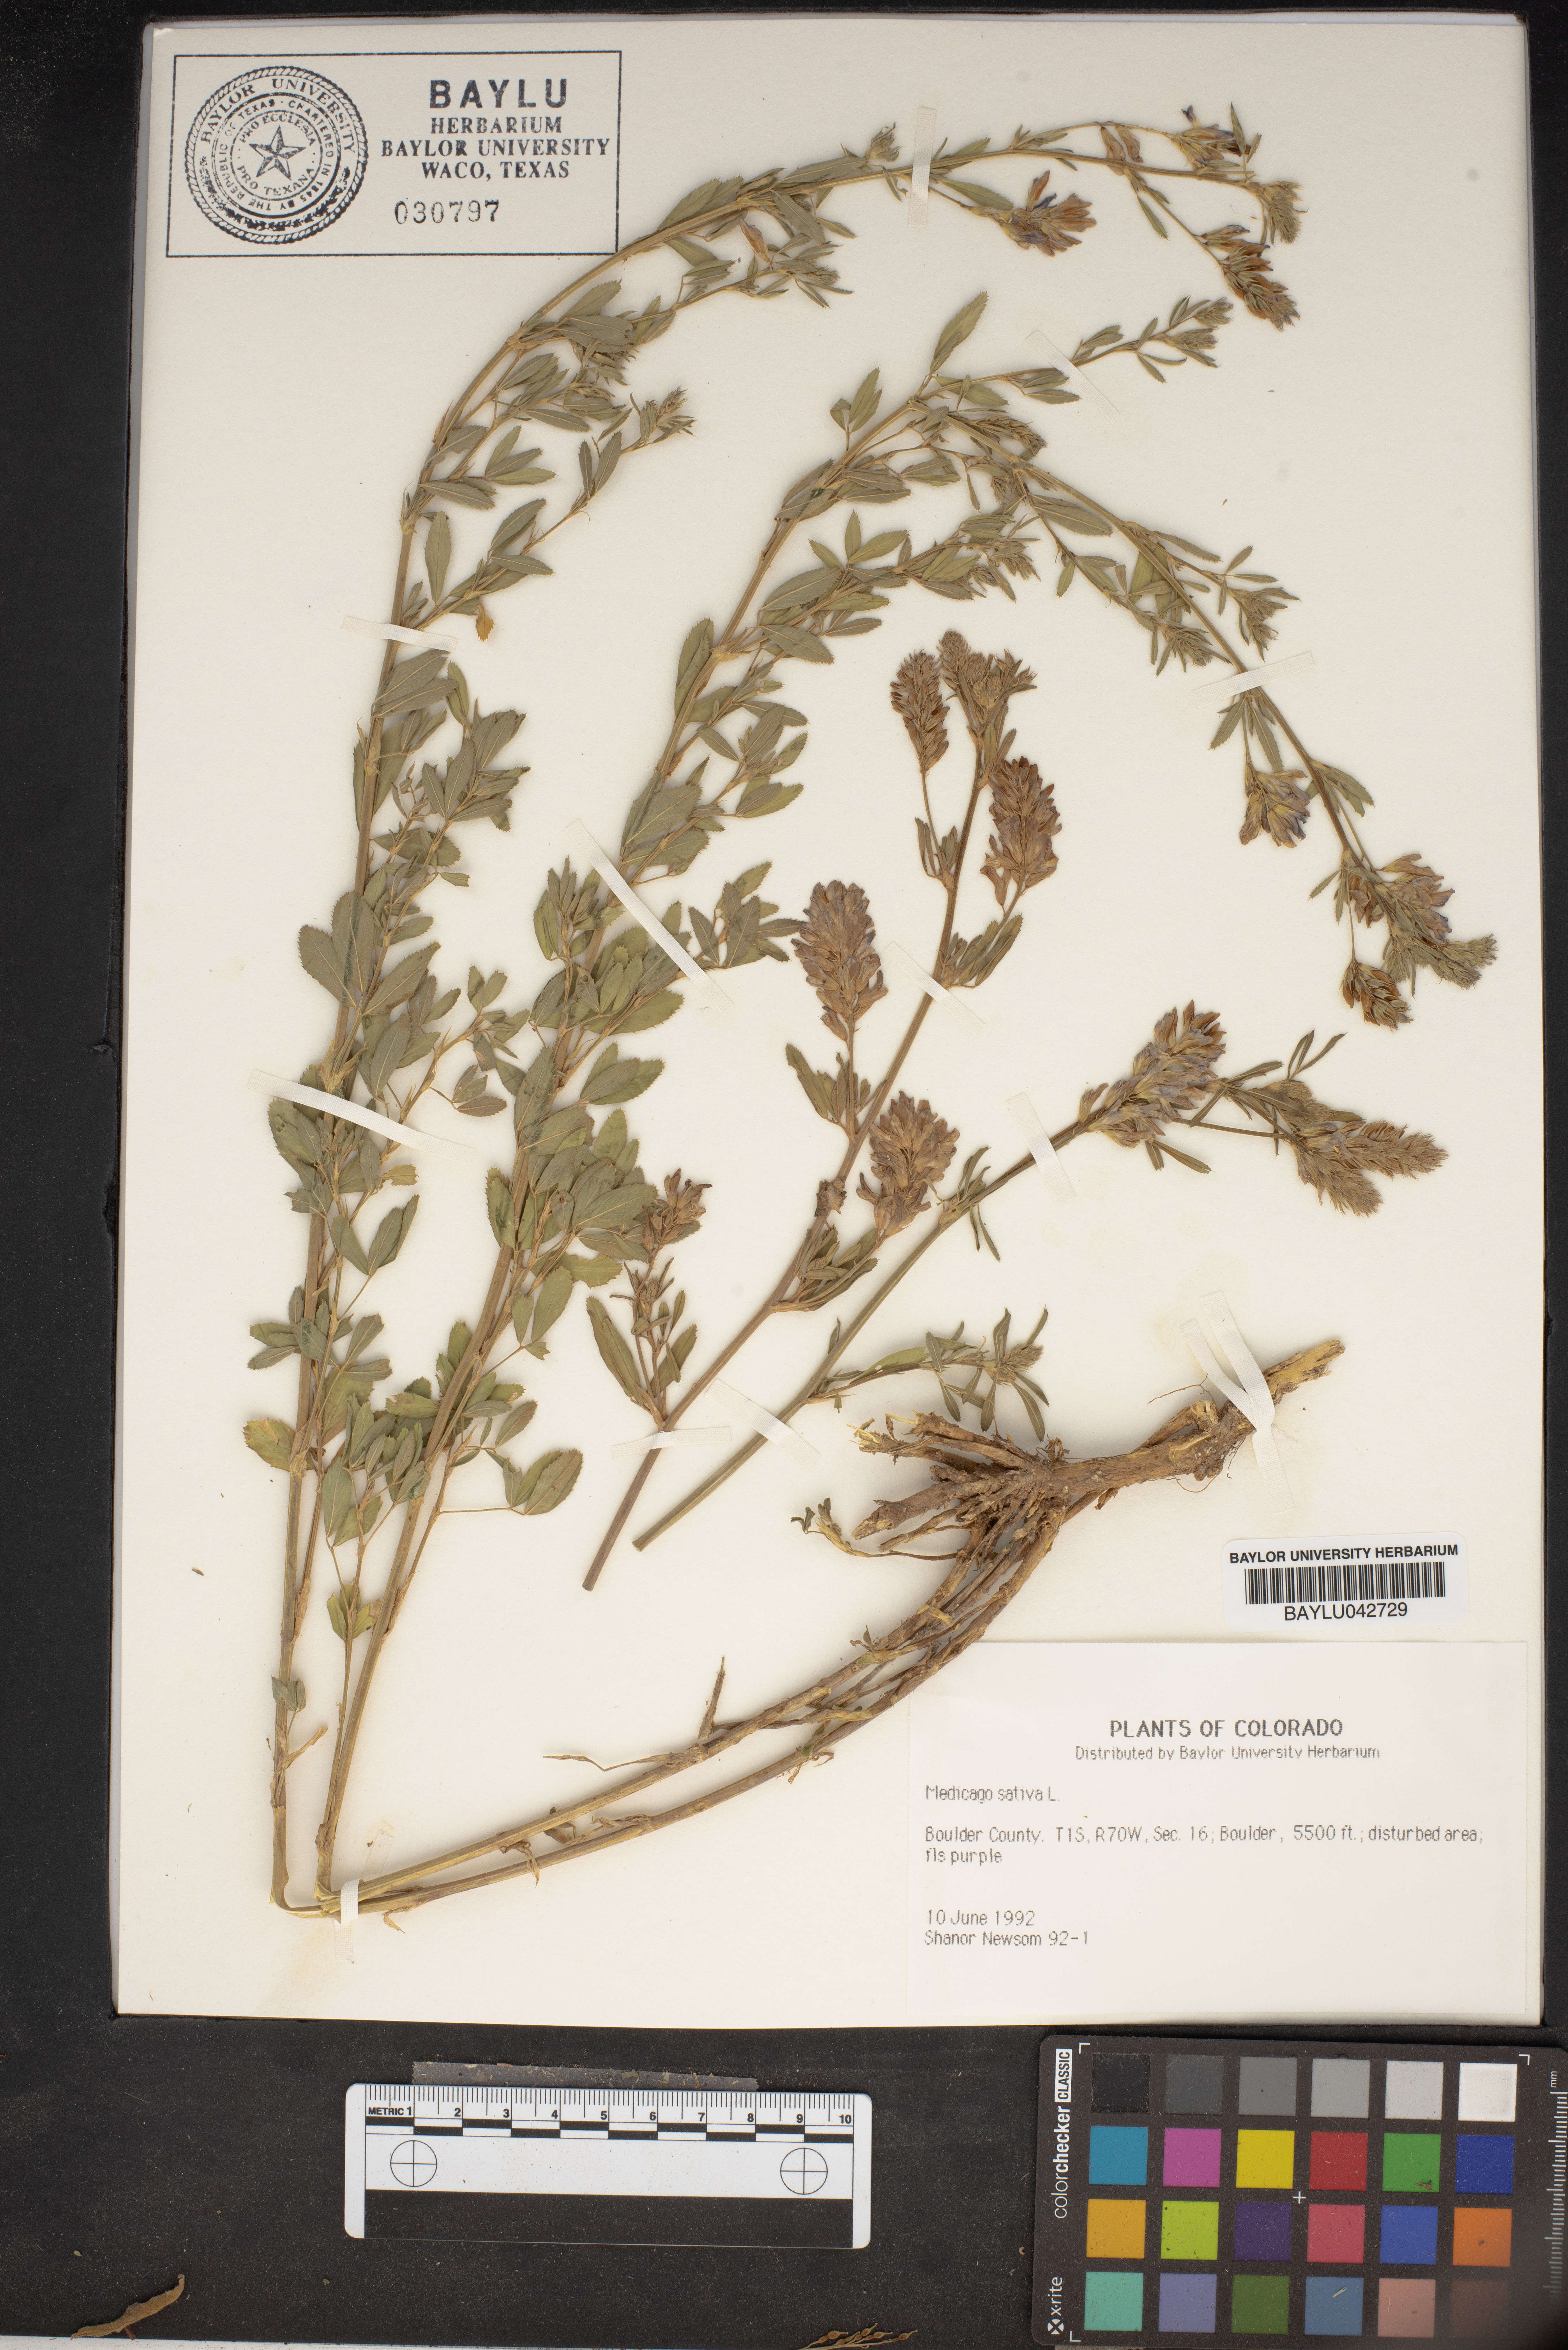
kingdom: Plantae
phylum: Tracheophyta
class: Magnoliopsida
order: Fabales
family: Fabaceae
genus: Medicago
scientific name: Medicago sativa
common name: Alfalfa
